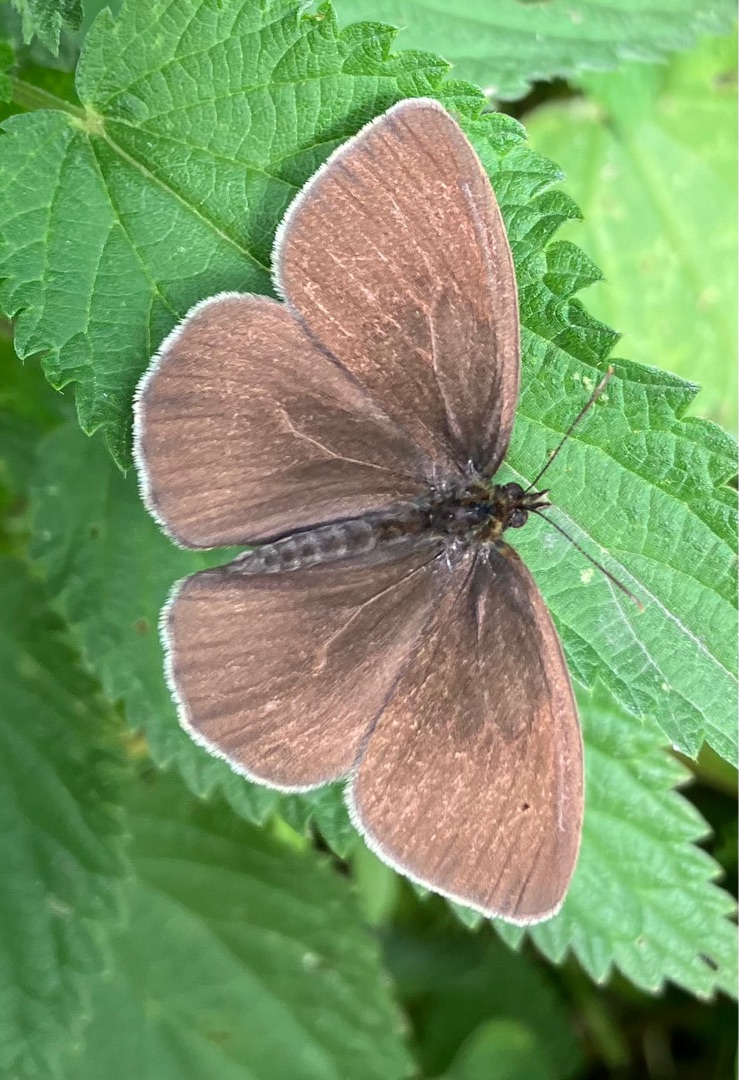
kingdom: Animalia
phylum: Arthropoda
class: Insecta
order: Lepidoptera
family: Nymphalidae
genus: Aphantopus
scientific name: Aphantopus hyperantus
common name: Engrandøje
